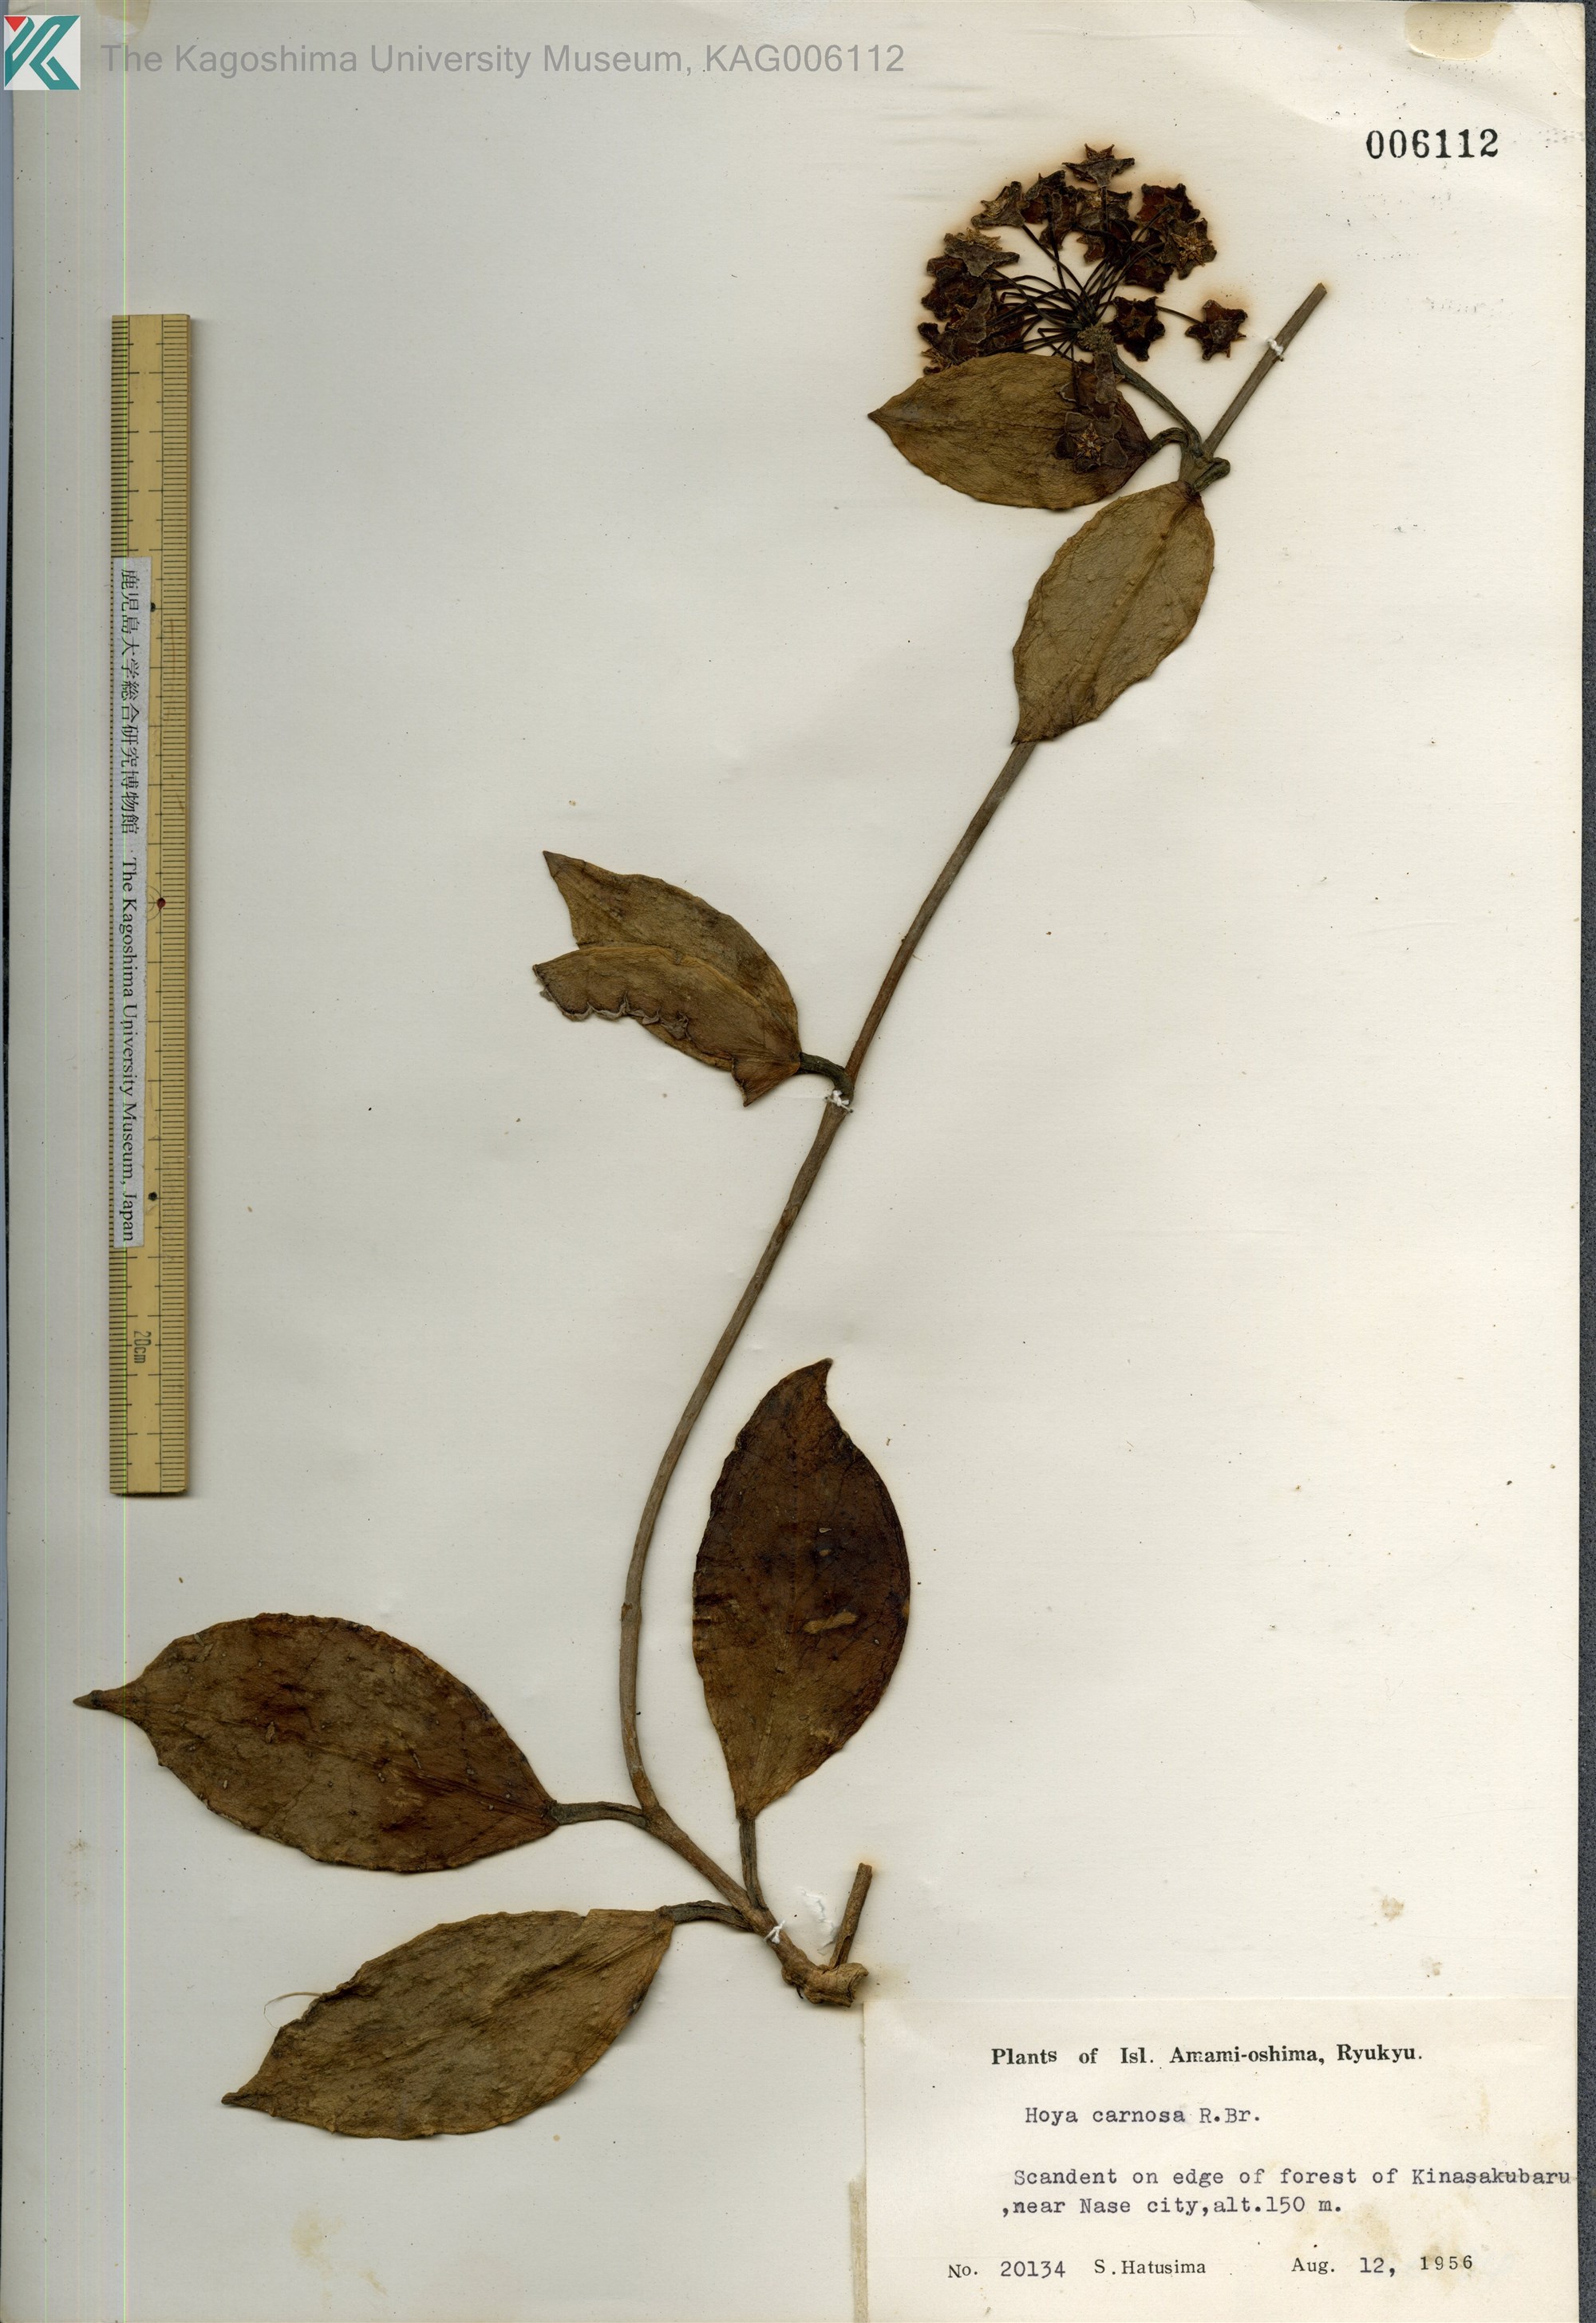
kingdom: Plantae
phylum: Tracheophyta
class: Magnoliopsida
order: Gentianales
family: Apocynaceae
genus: Hoya
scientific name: Hoya carnosa
